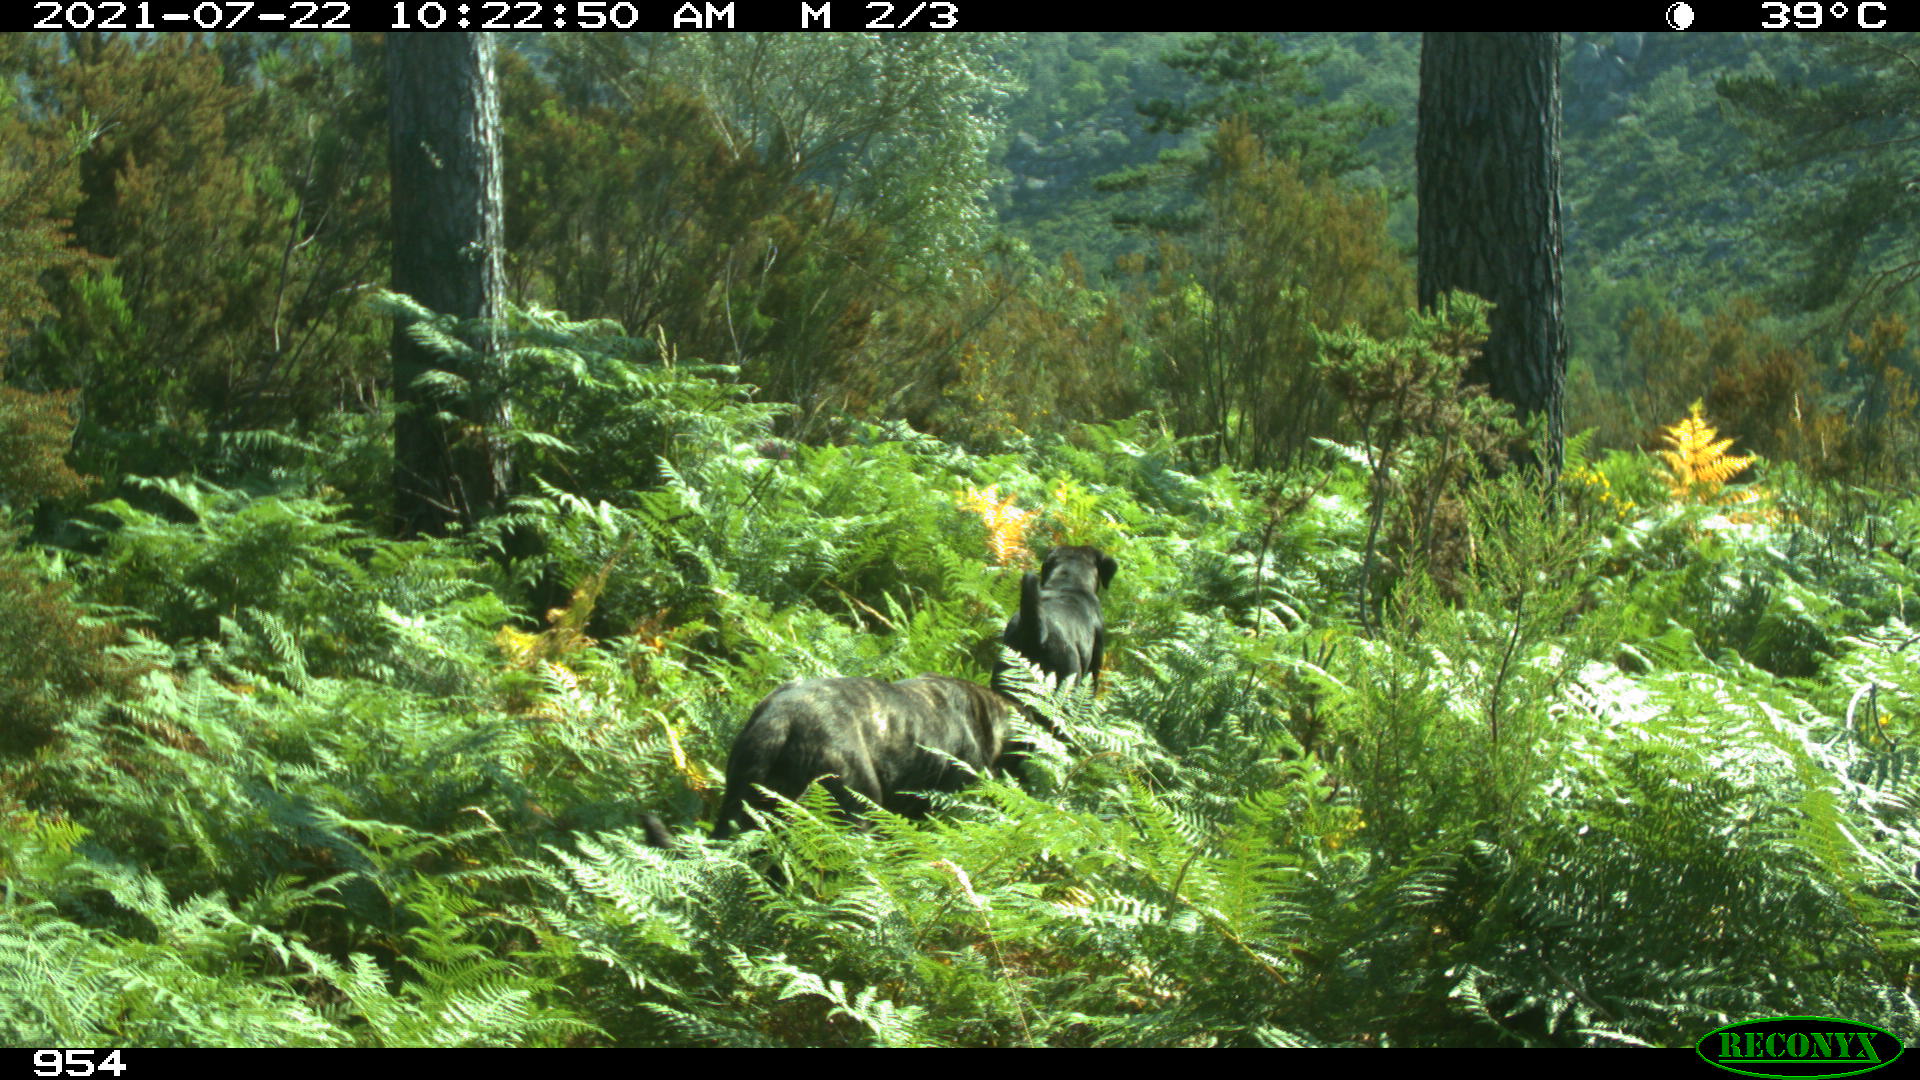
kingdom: Animalia
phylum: Chordata
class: Mammalia
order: Carnivora
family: Canidae
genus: Canis
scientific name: Canis lupus
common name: Gray wolf
